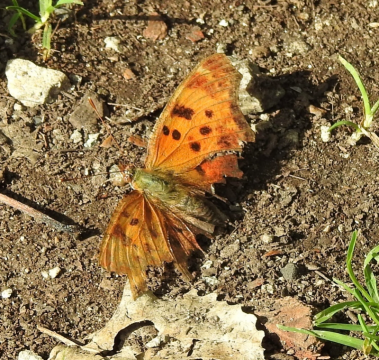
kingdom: Animalia
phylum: Arthropoda
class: Insecta
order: Lepidoptera
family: Nymphalidae
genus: Polygonia
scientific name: Polygonia comma
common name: Eastern Comma
